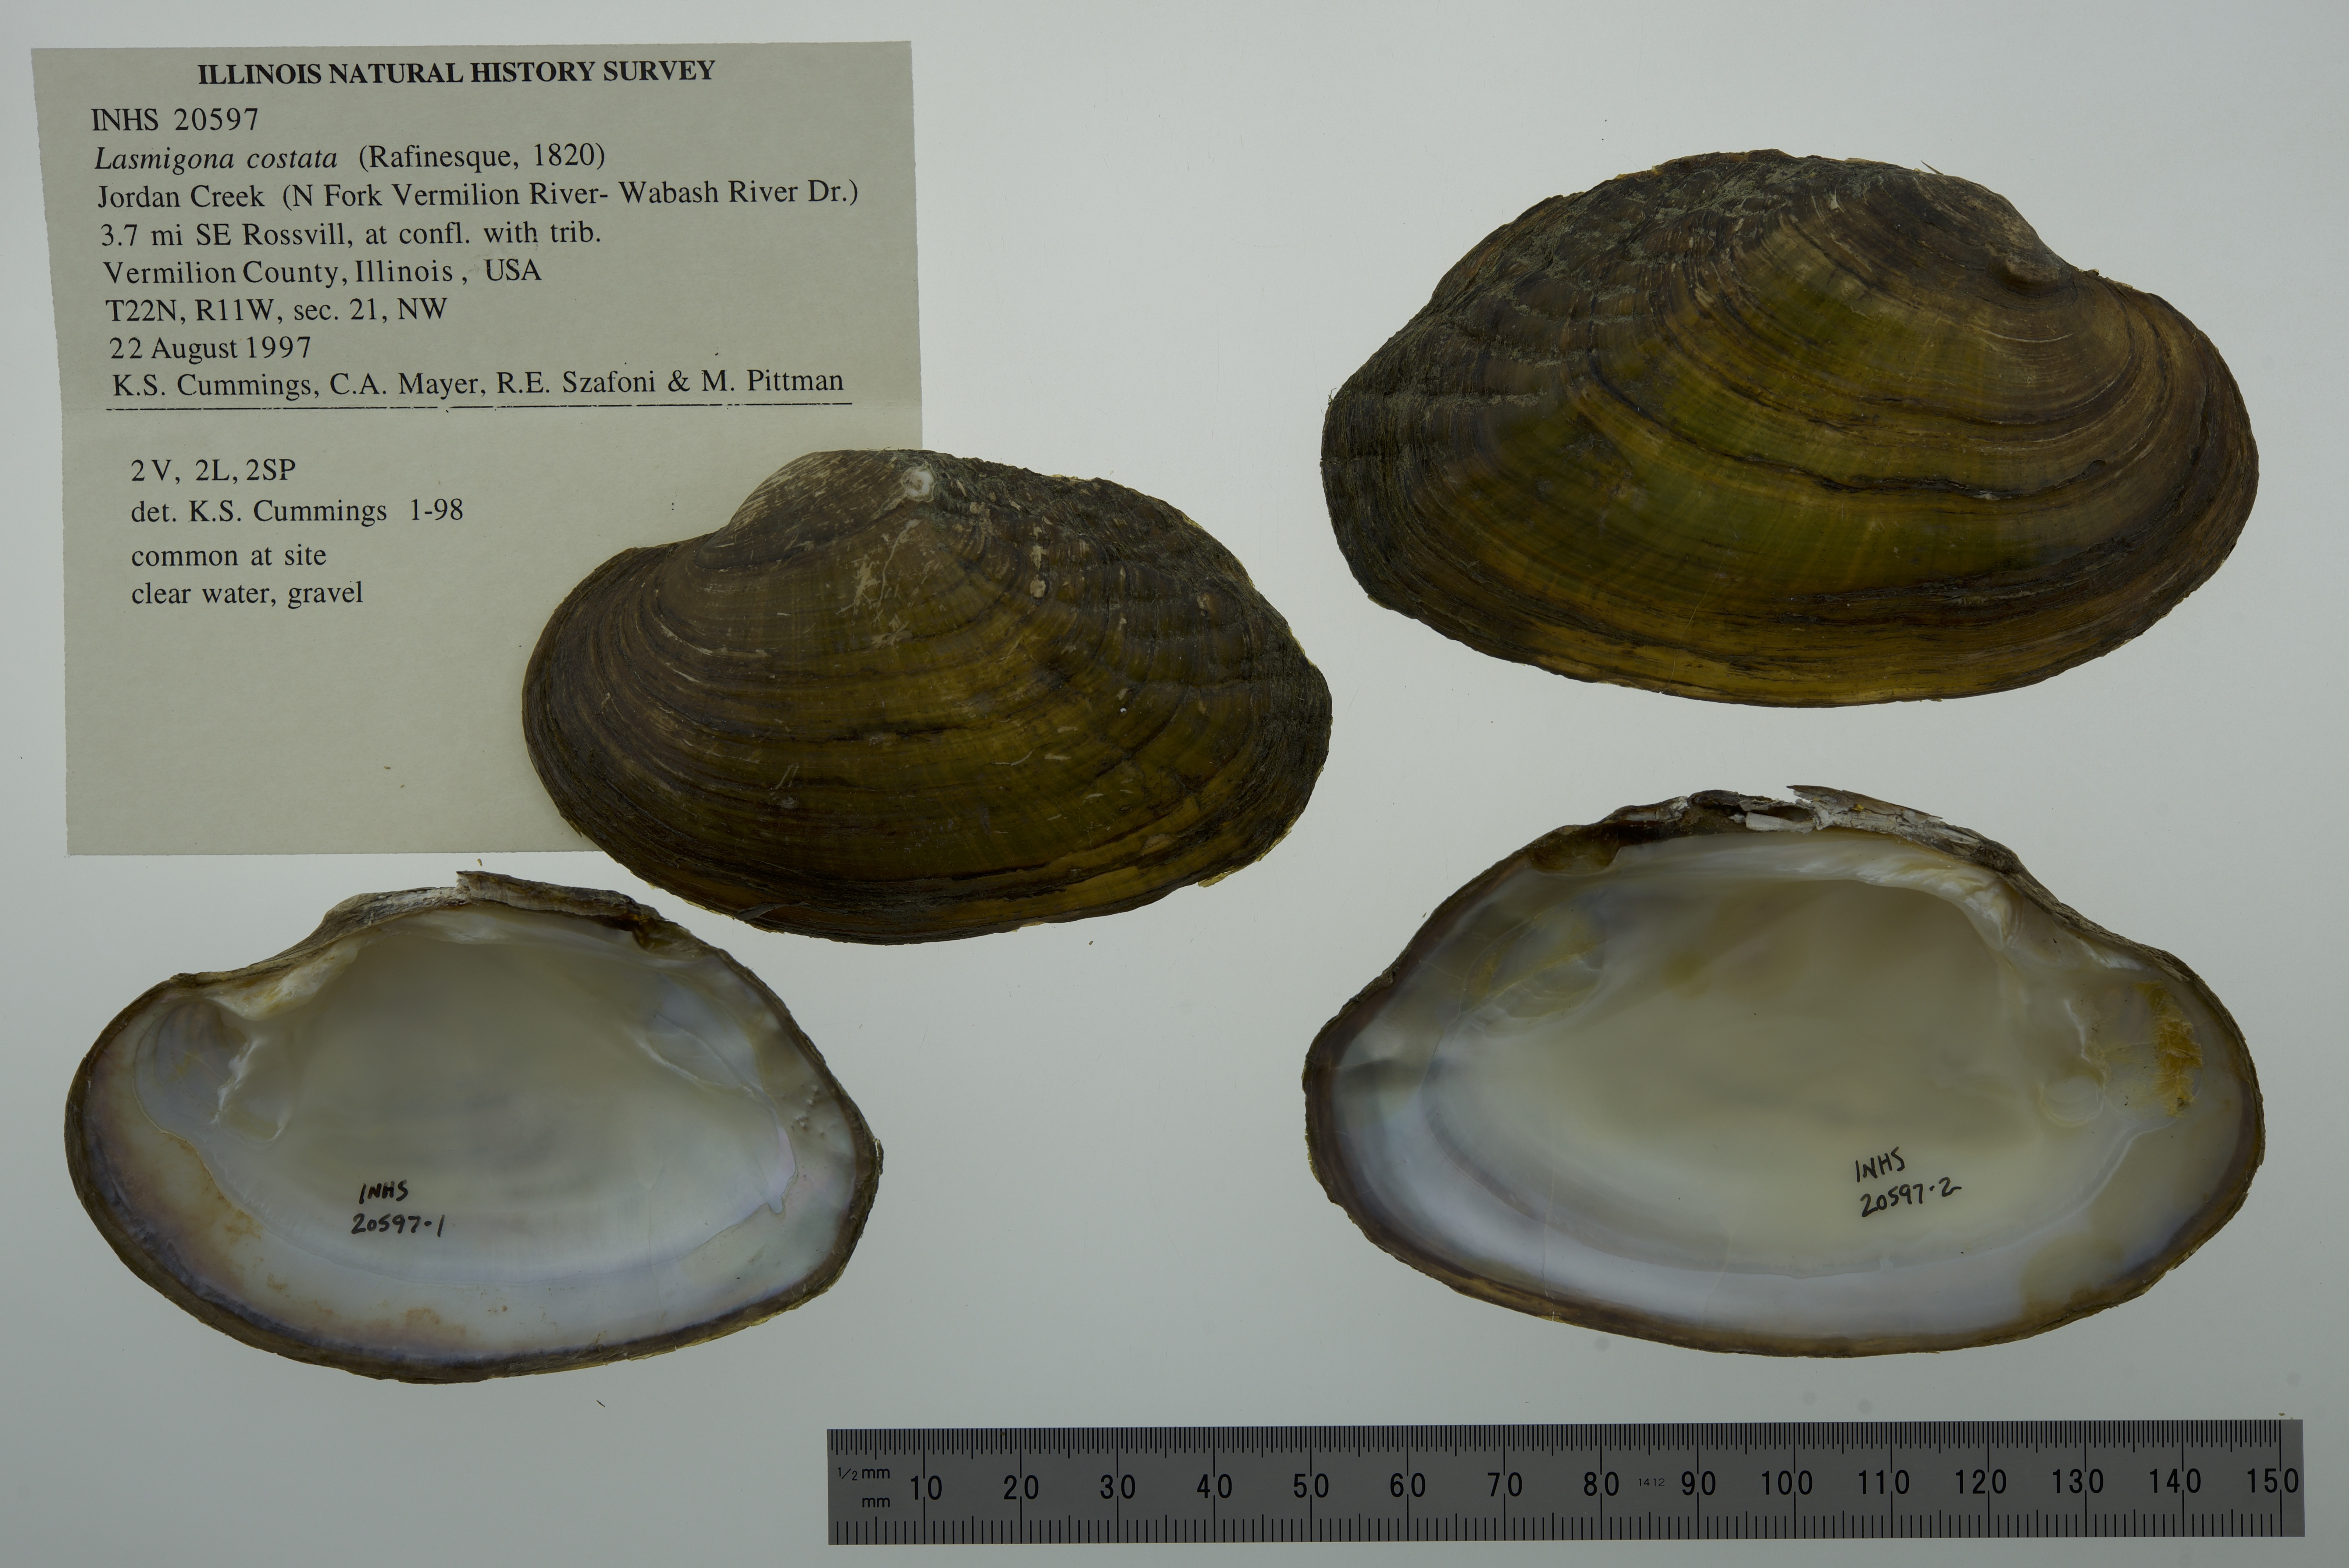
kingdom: Animalia
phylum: Mollusca
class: Bivalvia
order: Unionida
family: Unionidae
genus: Lasmigona
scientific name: Lasmigona costata
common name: Flutedshell
